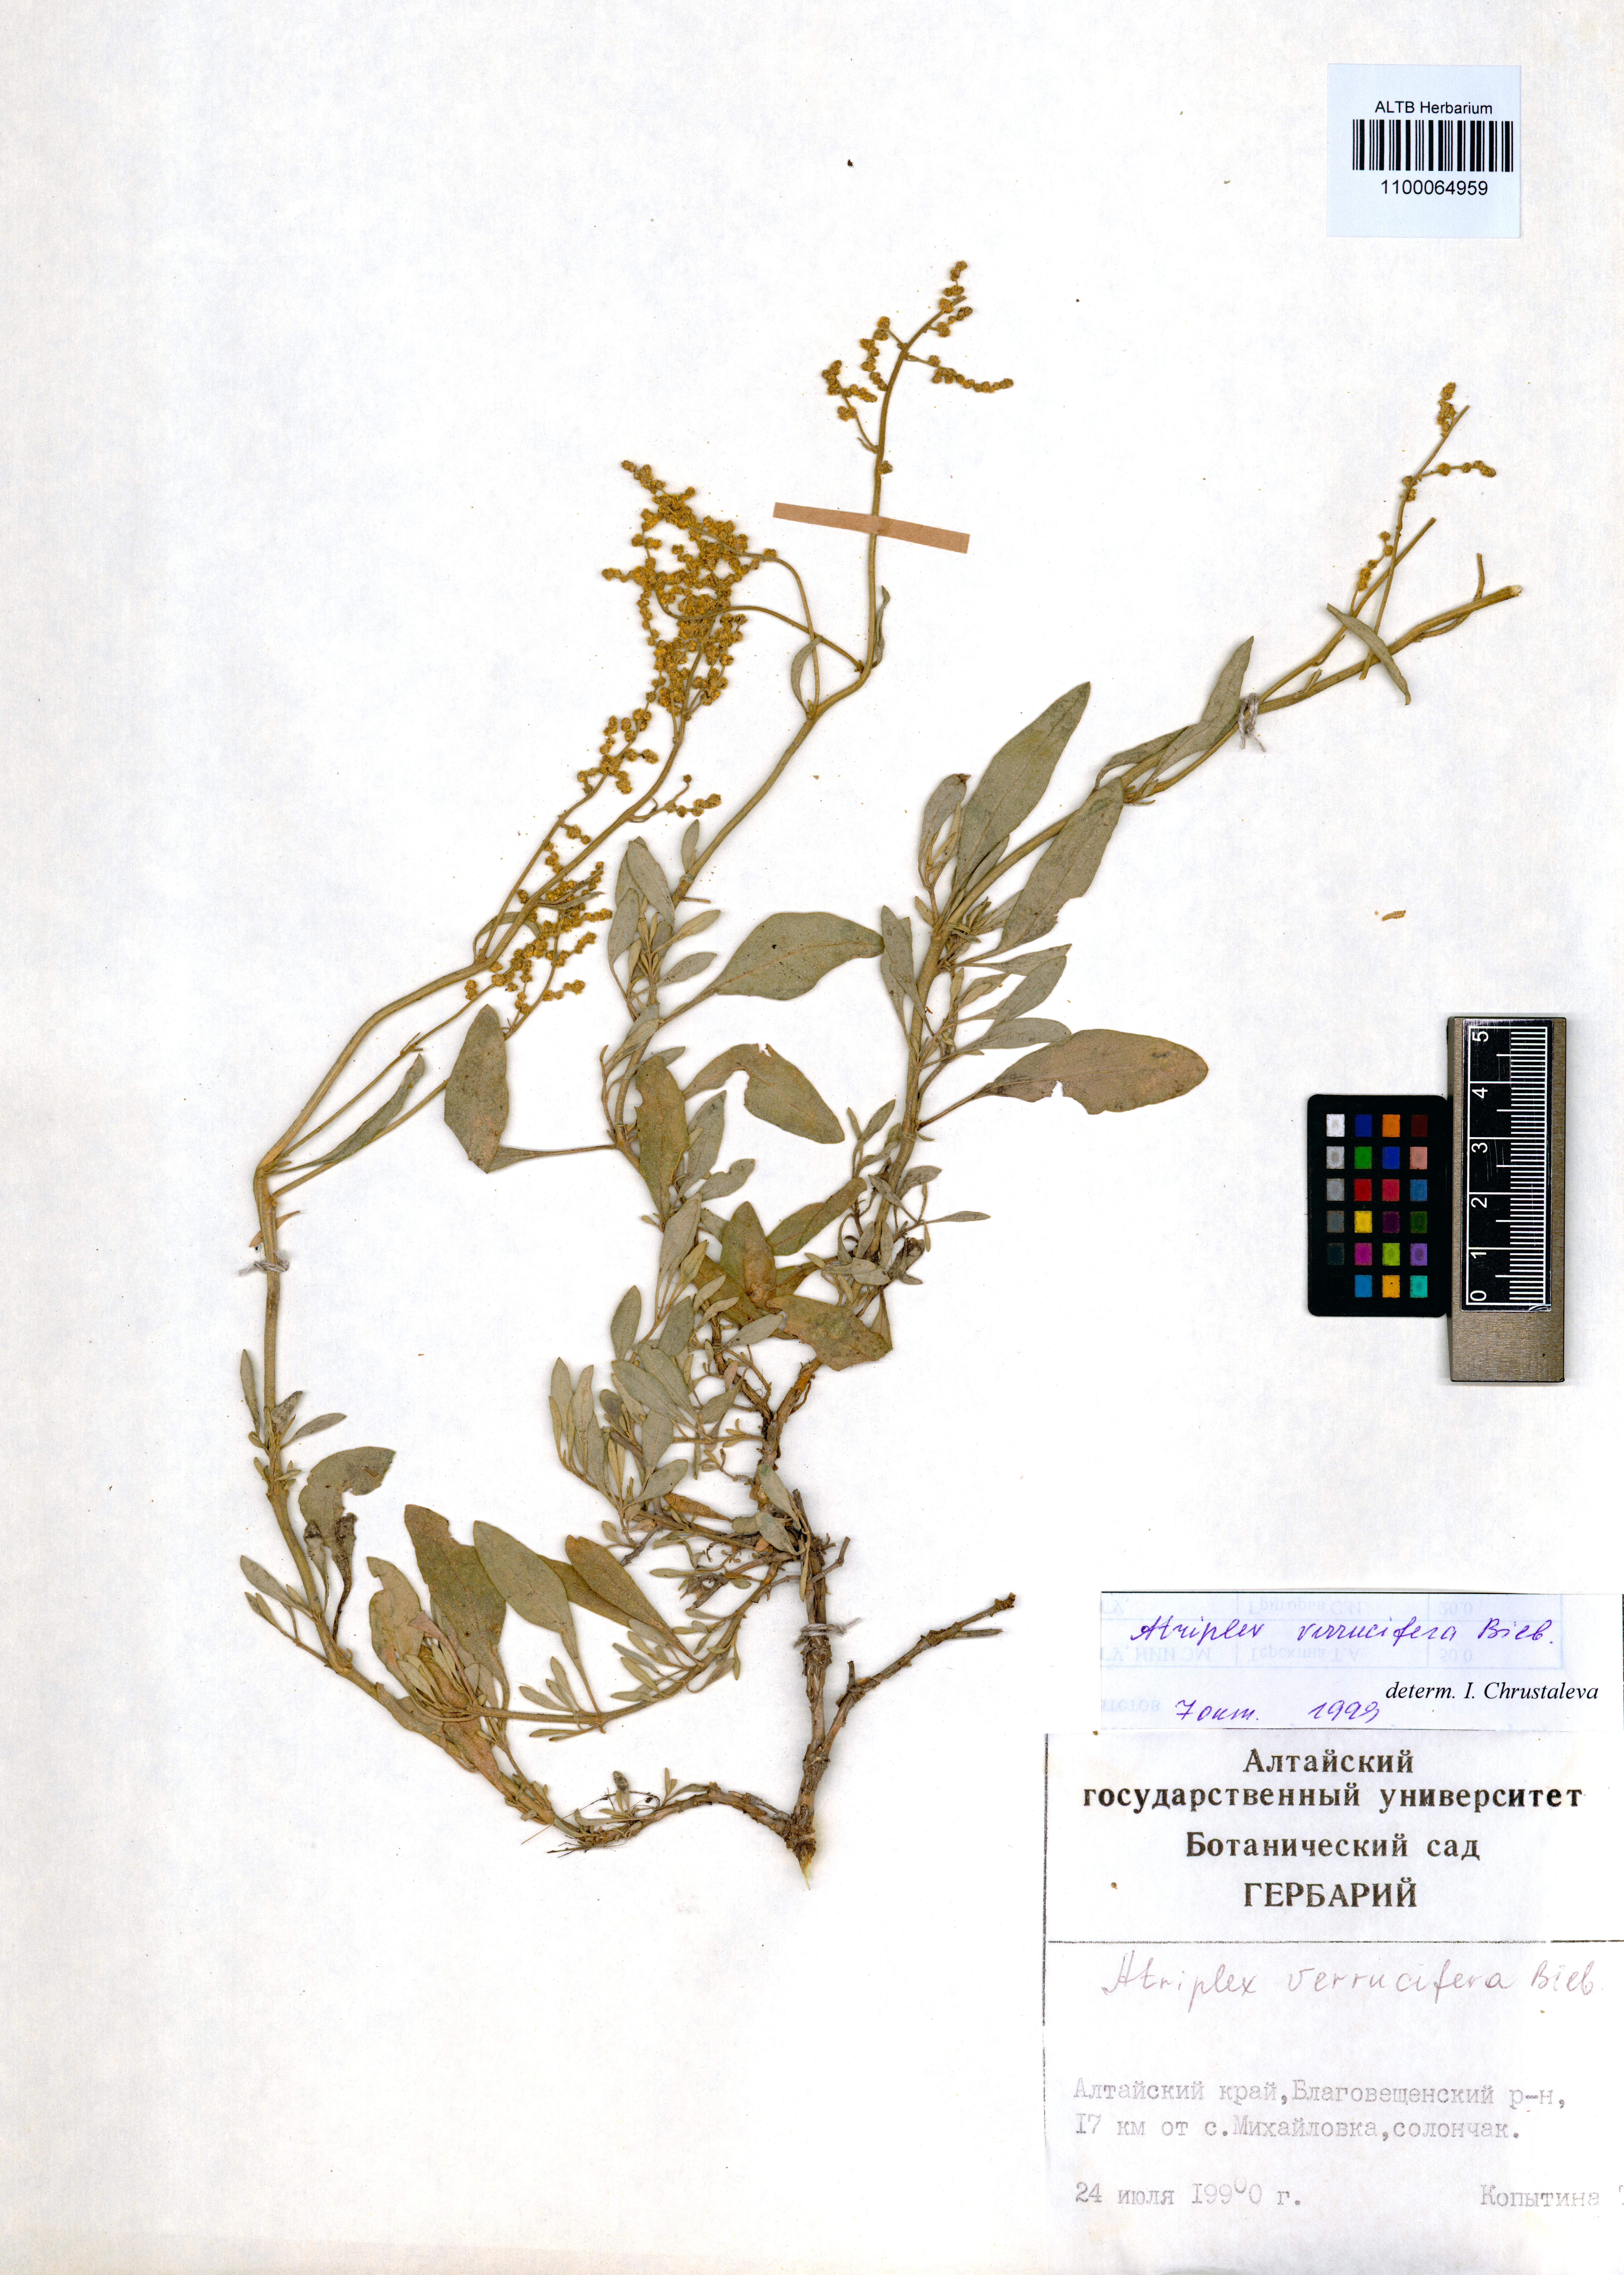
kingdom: Plantae
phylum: Tracheophyta
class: Magnoliopsida
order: Caryophyllales
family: Amaranthaceae
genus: Halimione
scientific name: Halimione verrucifera
